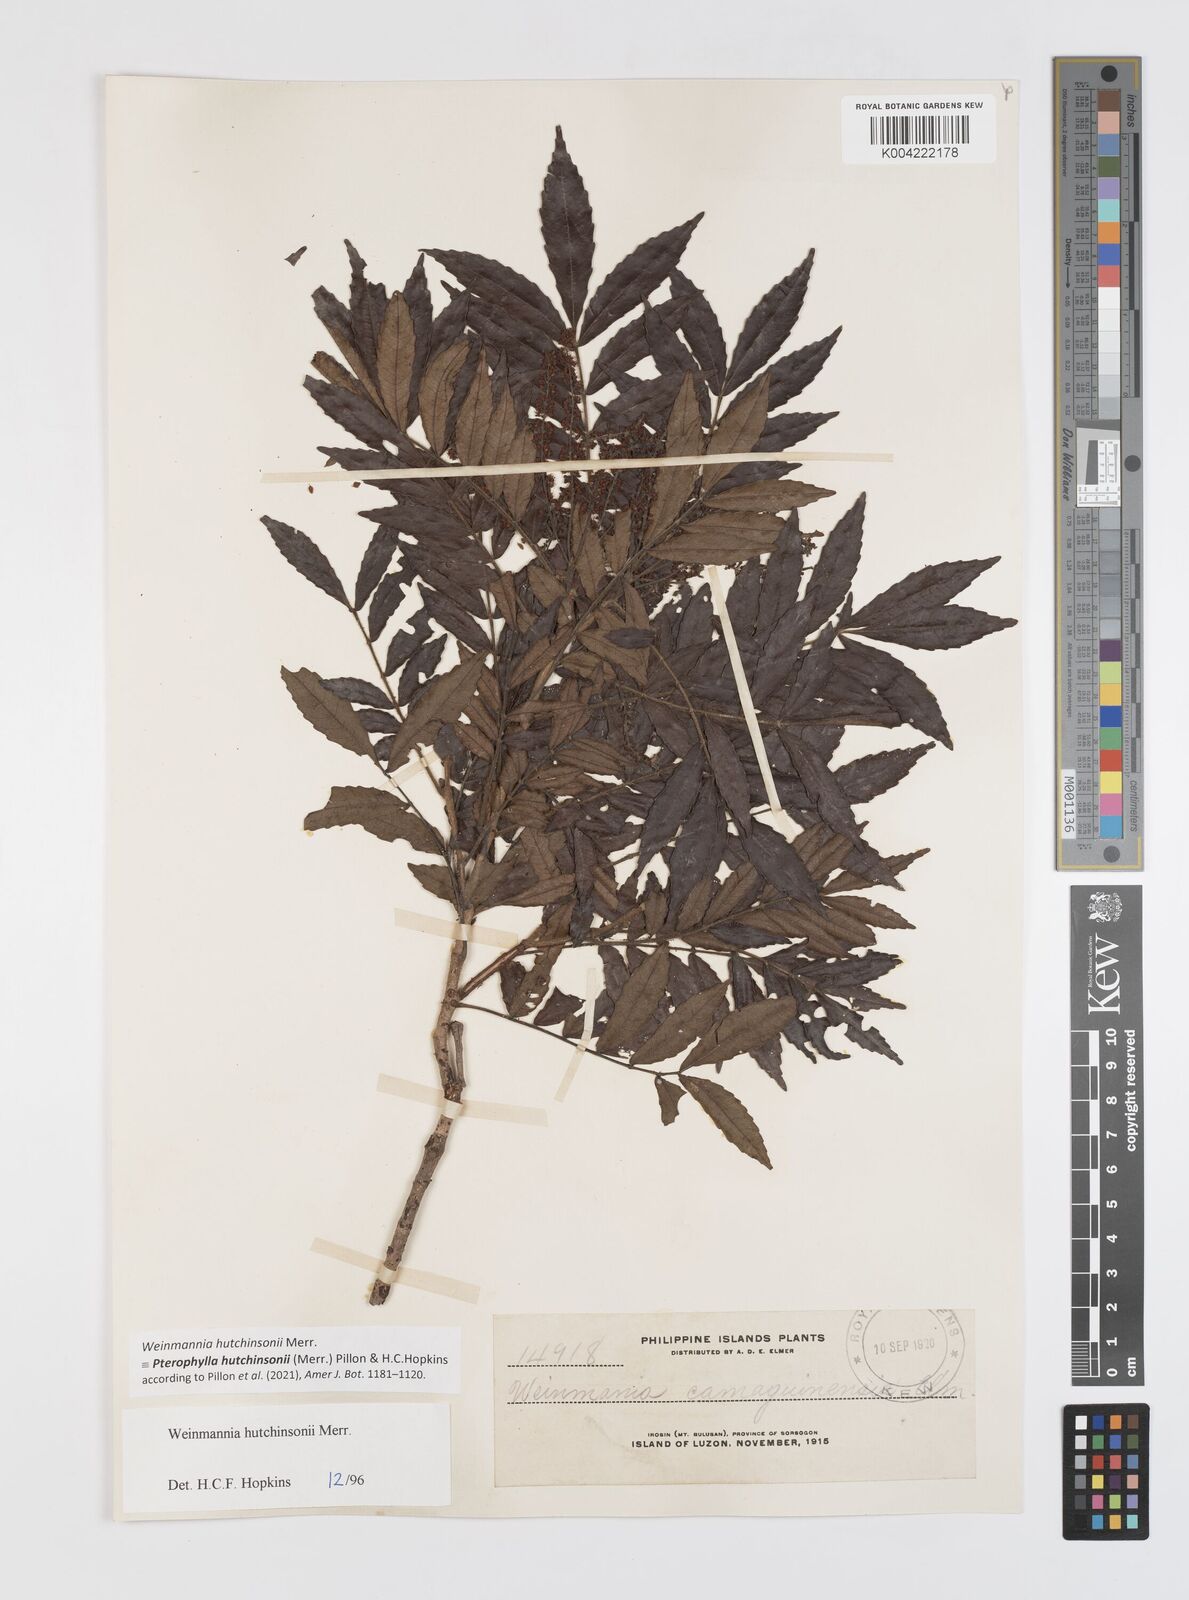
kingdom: Plantae
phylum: Tracheophyta
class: Magnoliopsida
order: Oxalidales
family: Cunoniaceae
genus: Pterophylla
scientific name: Pterophylla hutchinsonii
